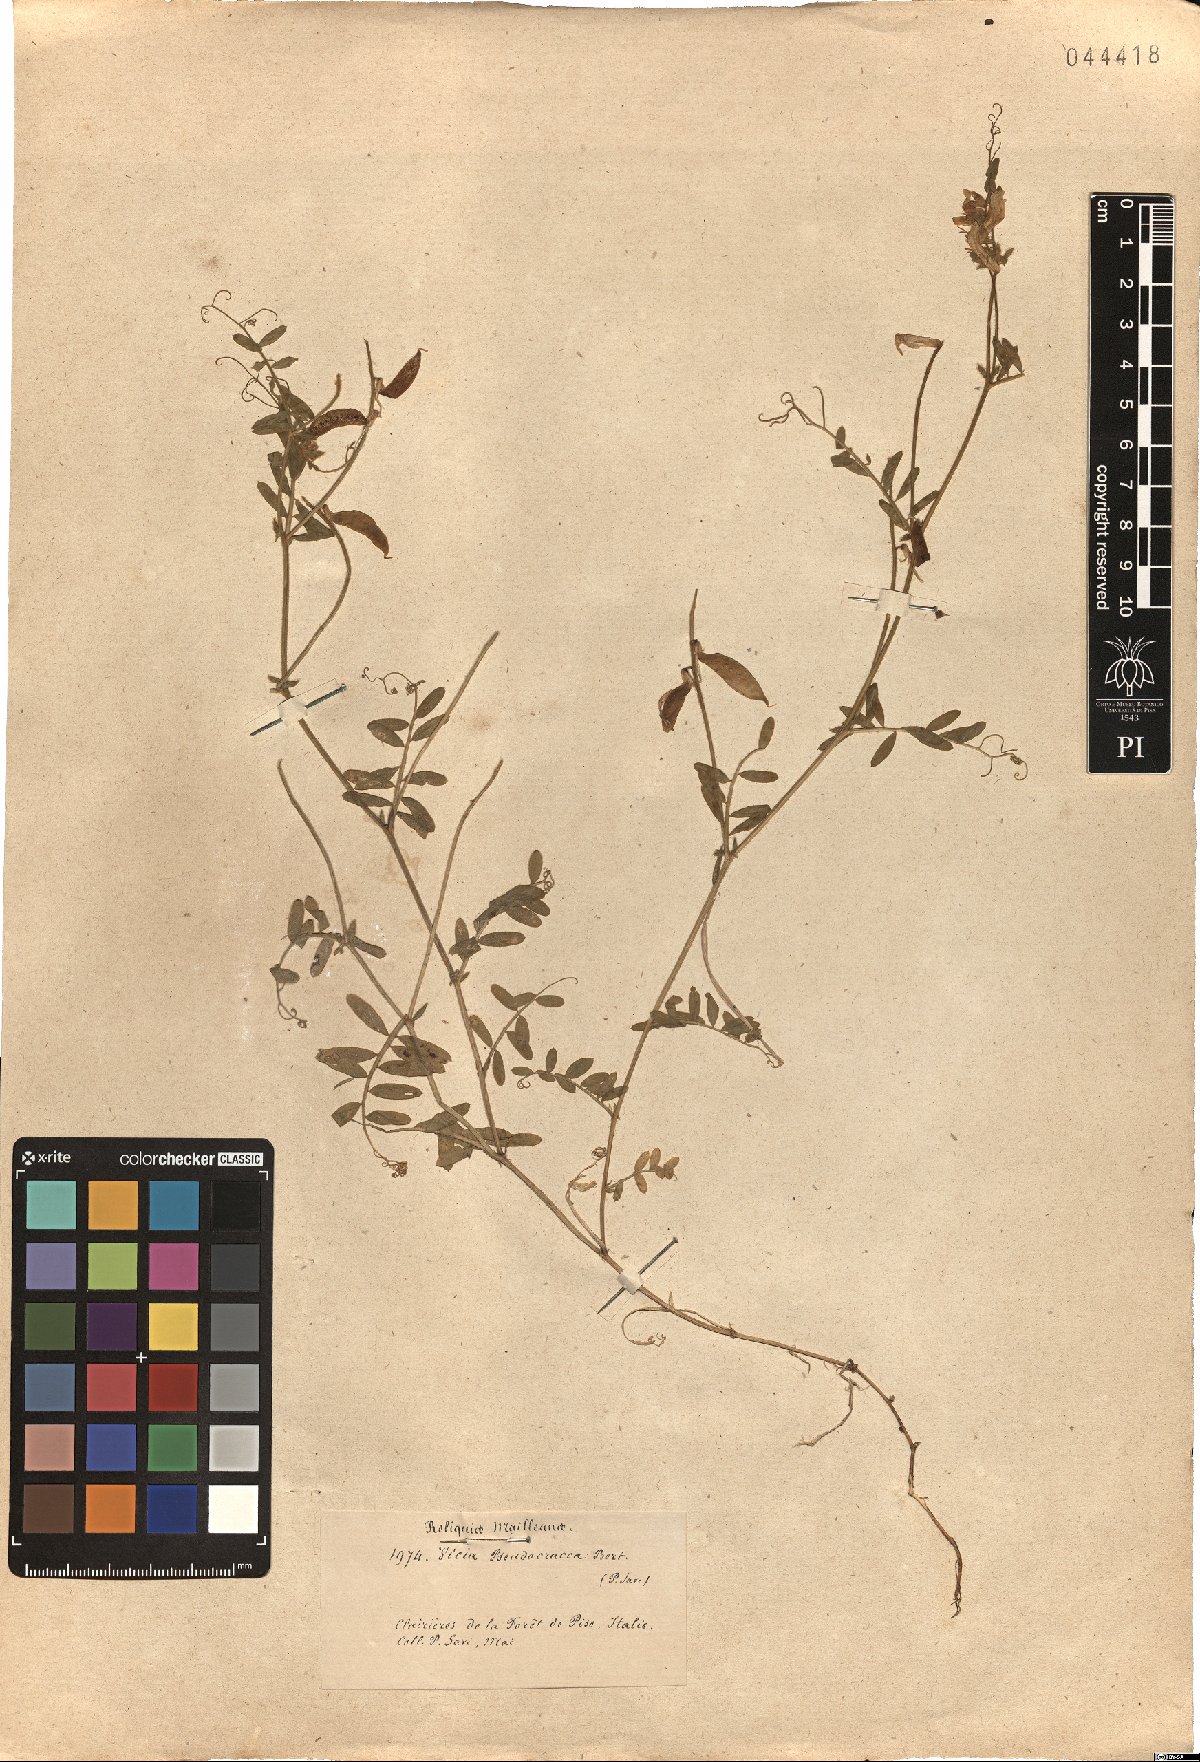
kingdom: Plantae
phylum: Tracheophyta
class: Magnoliopsida
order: Fabales
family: Fabaceae
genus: Vicia
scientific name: Vicia villosa
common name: Fodder vetch
